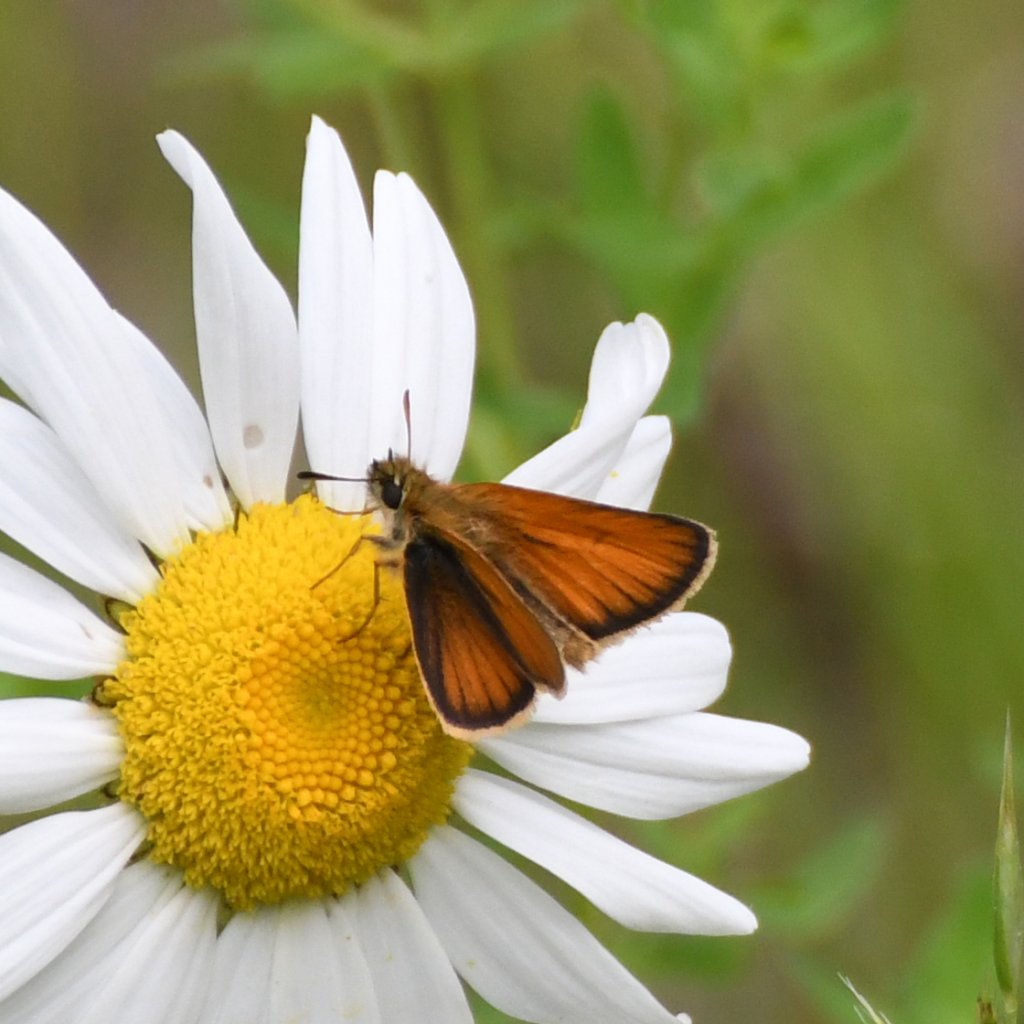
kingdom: Animalia
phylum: Arthropoda
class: Insecta
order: Lepidoptera
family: Hesperiidae
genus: Thymelicus
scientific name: Thymelicus lineola
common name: European Skipper
